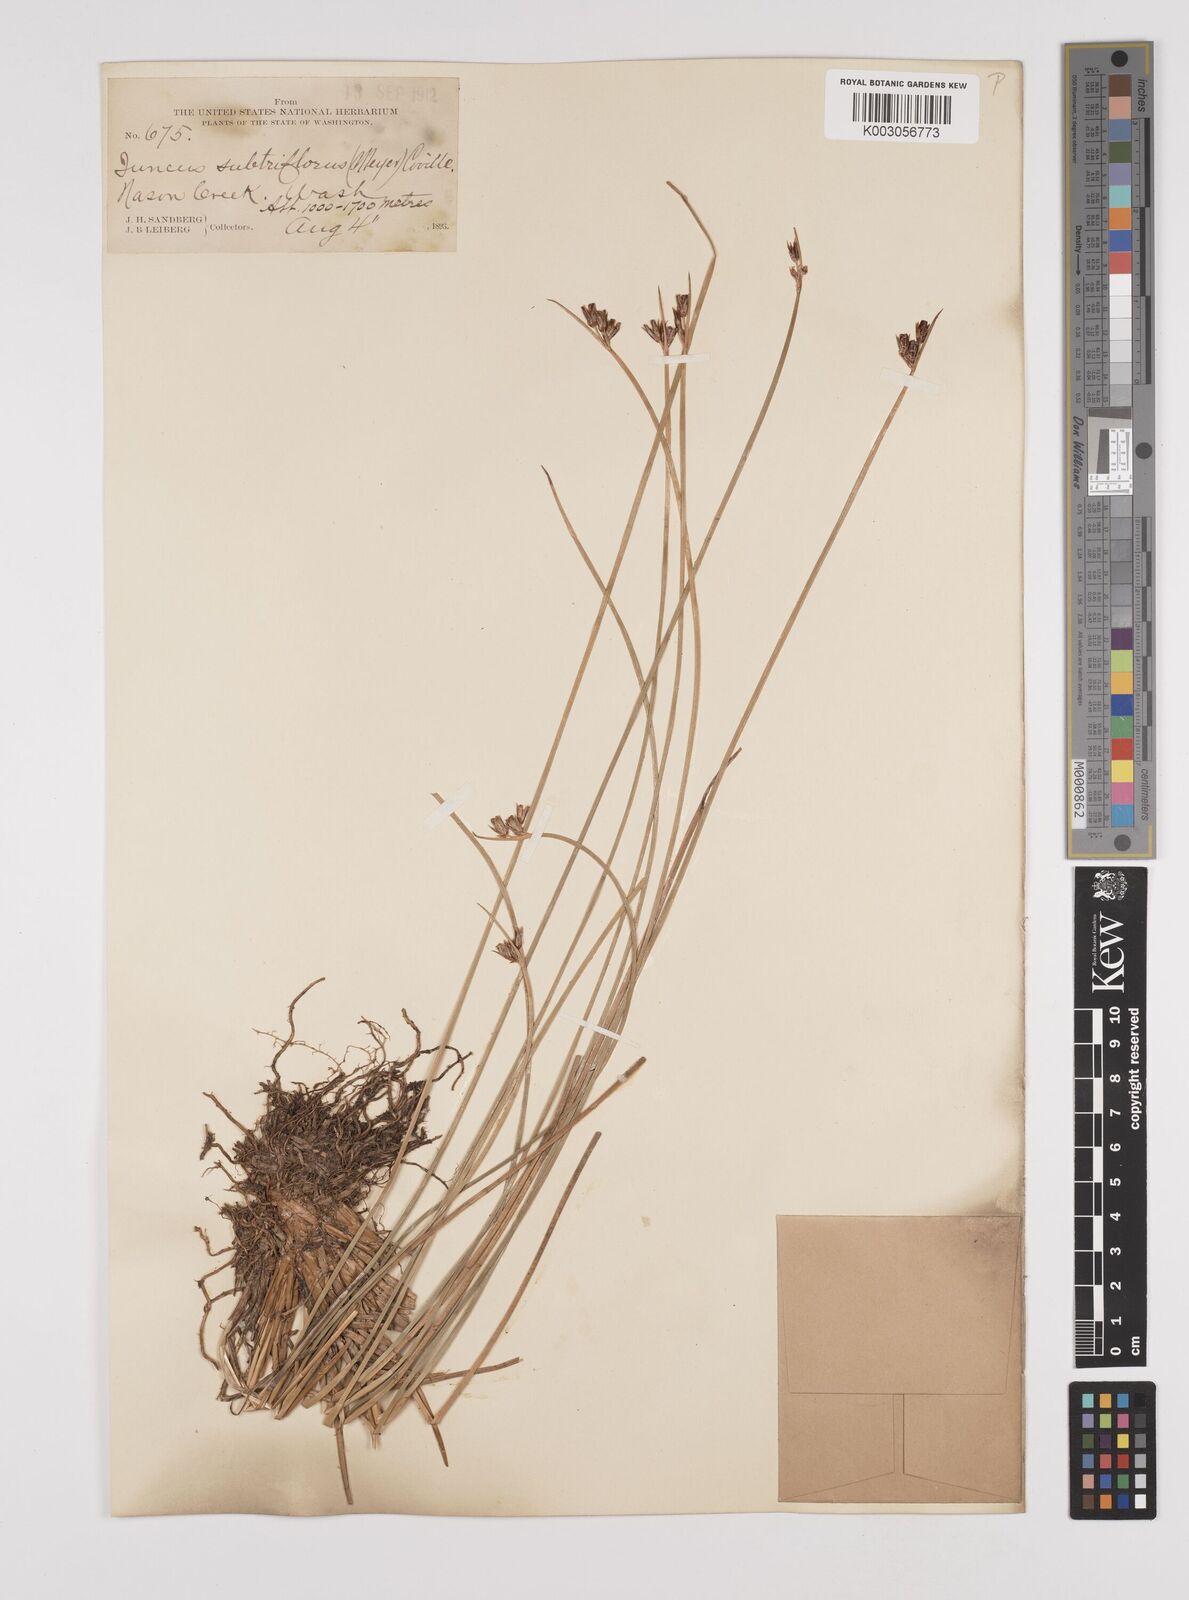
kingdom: Plantae
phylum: Tracheophyta
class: Liliopsida
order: Poales
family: Juncaceae
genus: Juncus
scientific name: Juncus drummondii
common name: Drummond's rush
